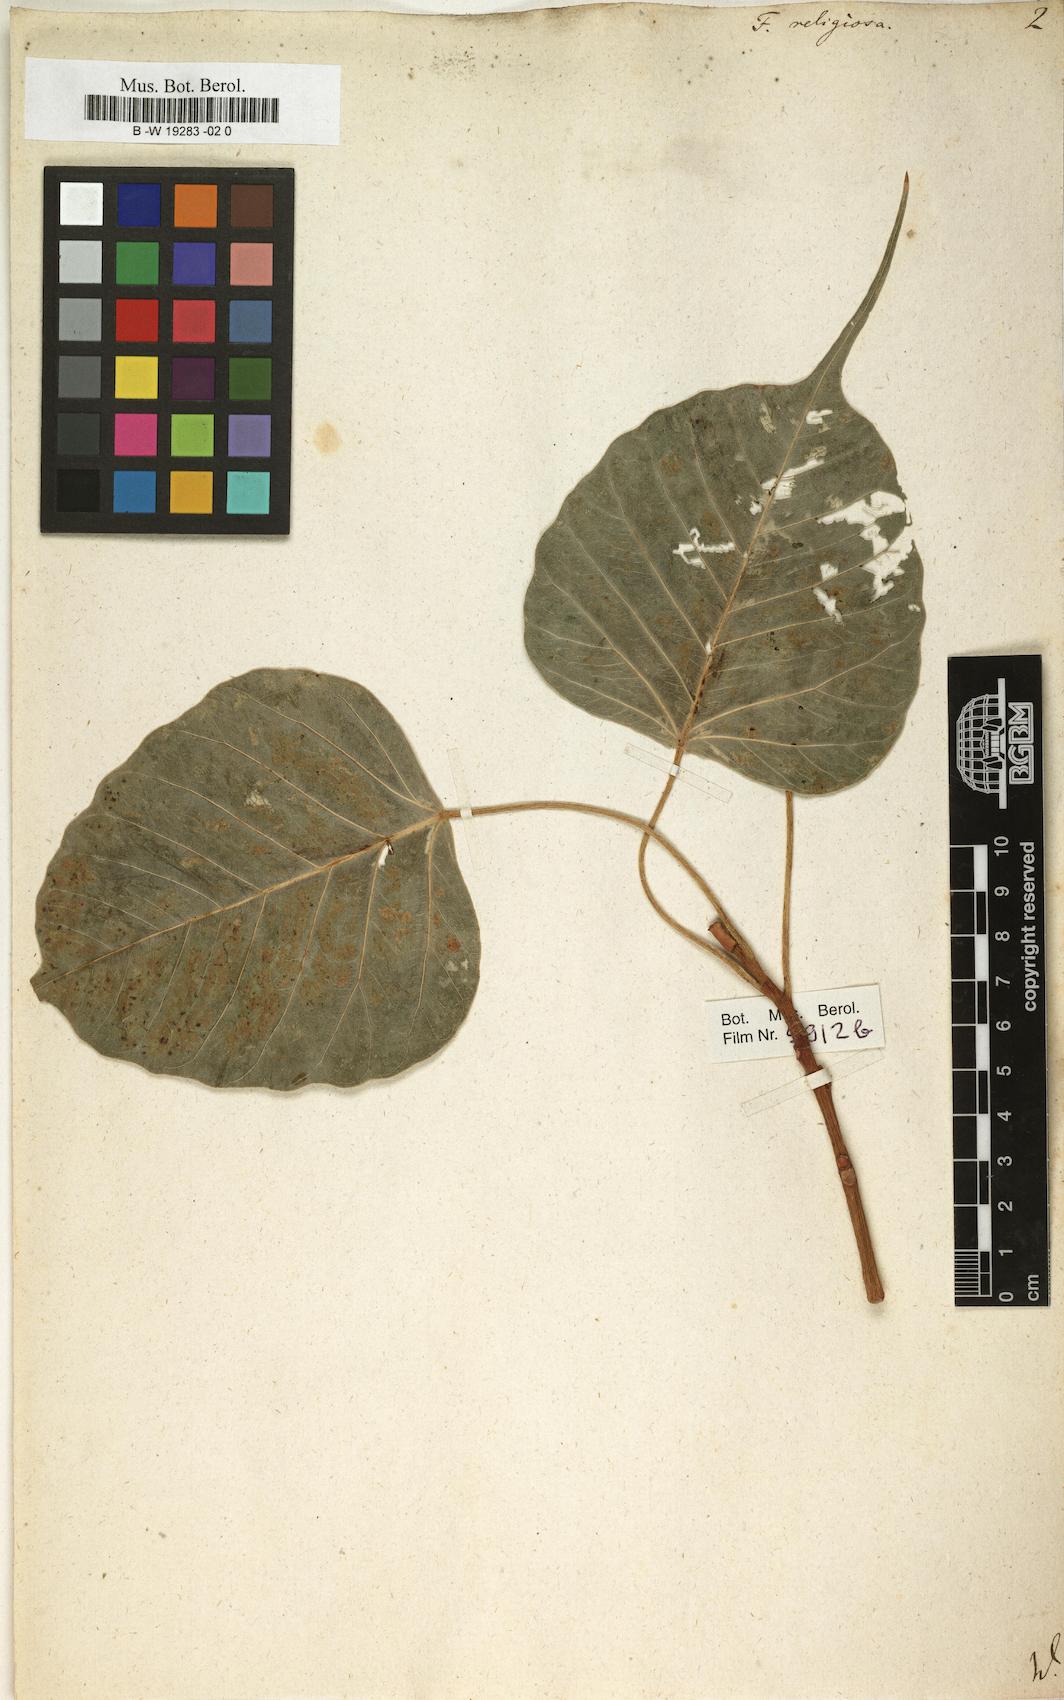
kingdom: Plantae
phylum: Tracheophyta
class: Magnoliopsida
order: Rosales
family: Moraceae
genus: Ficus
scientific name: Ficus religiosa
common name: Bodhi tree
